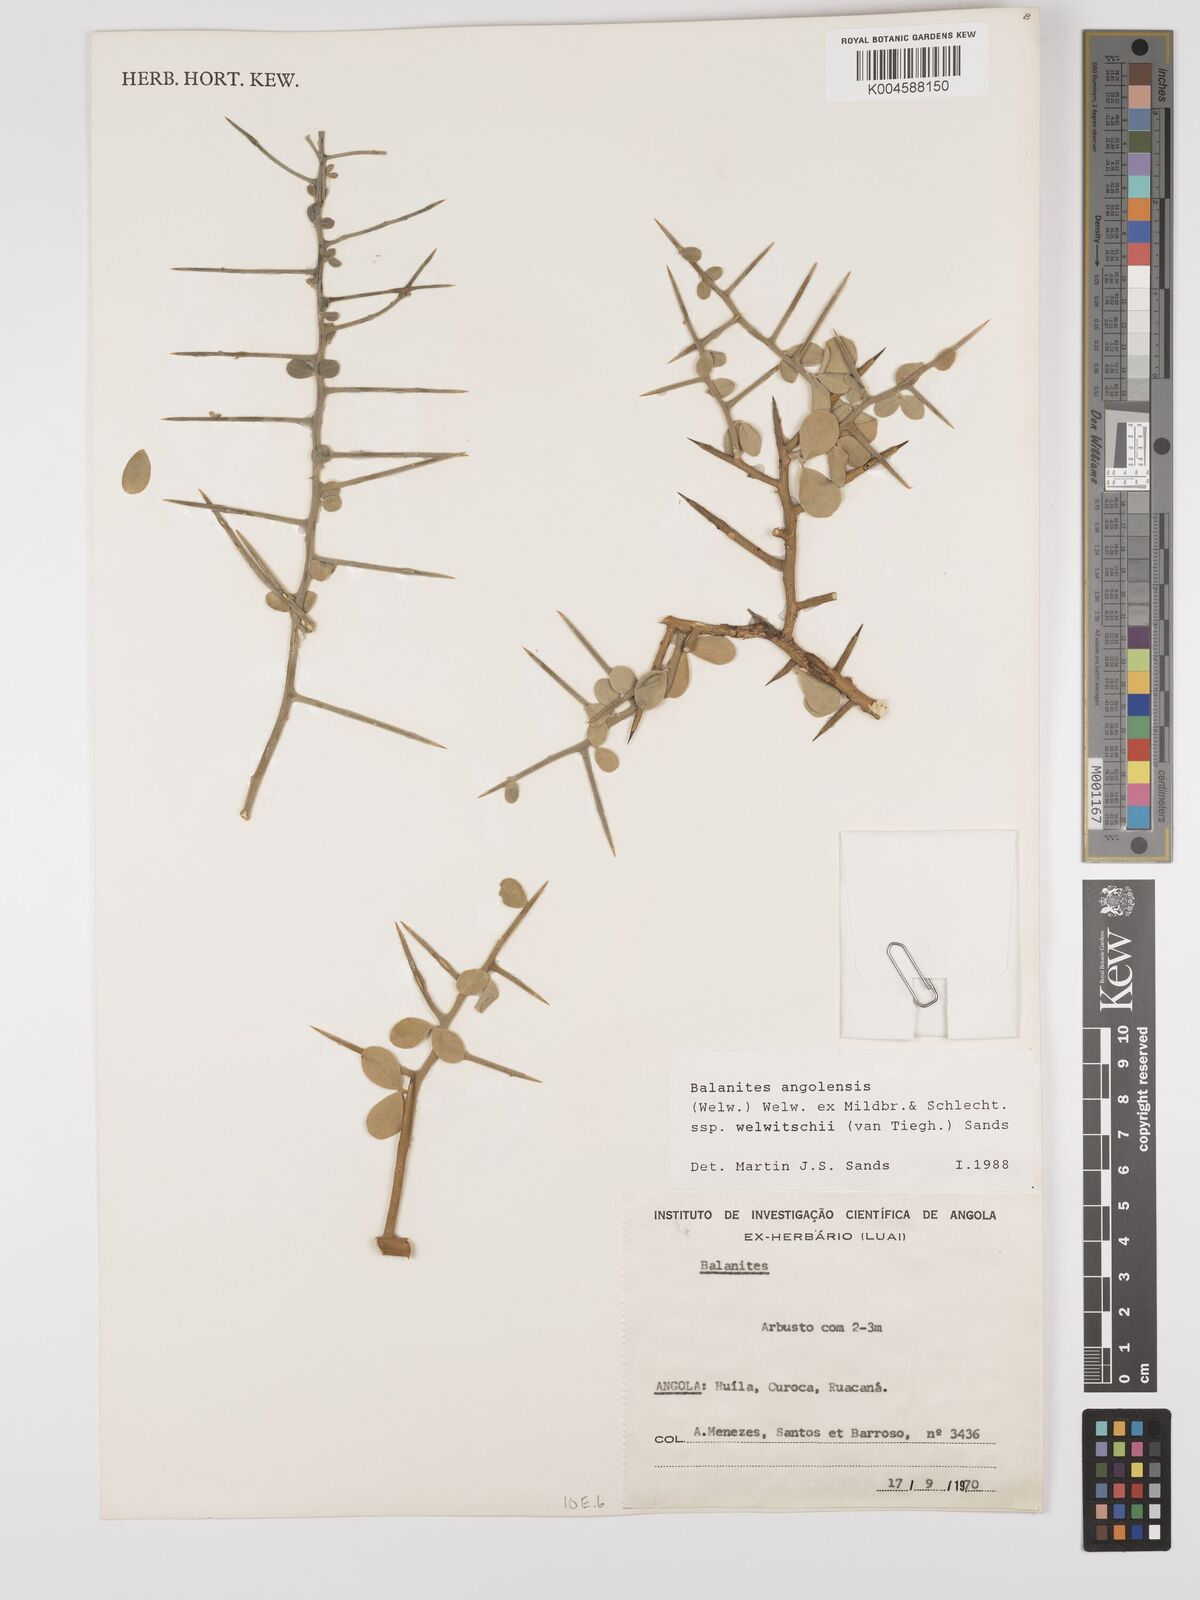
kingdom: Plantae
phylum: Tracheophyta
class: Magnoliopsida
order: Zygophyllales
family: Zygophyllaceae
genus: Balanites
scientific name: Balanites angolensis
